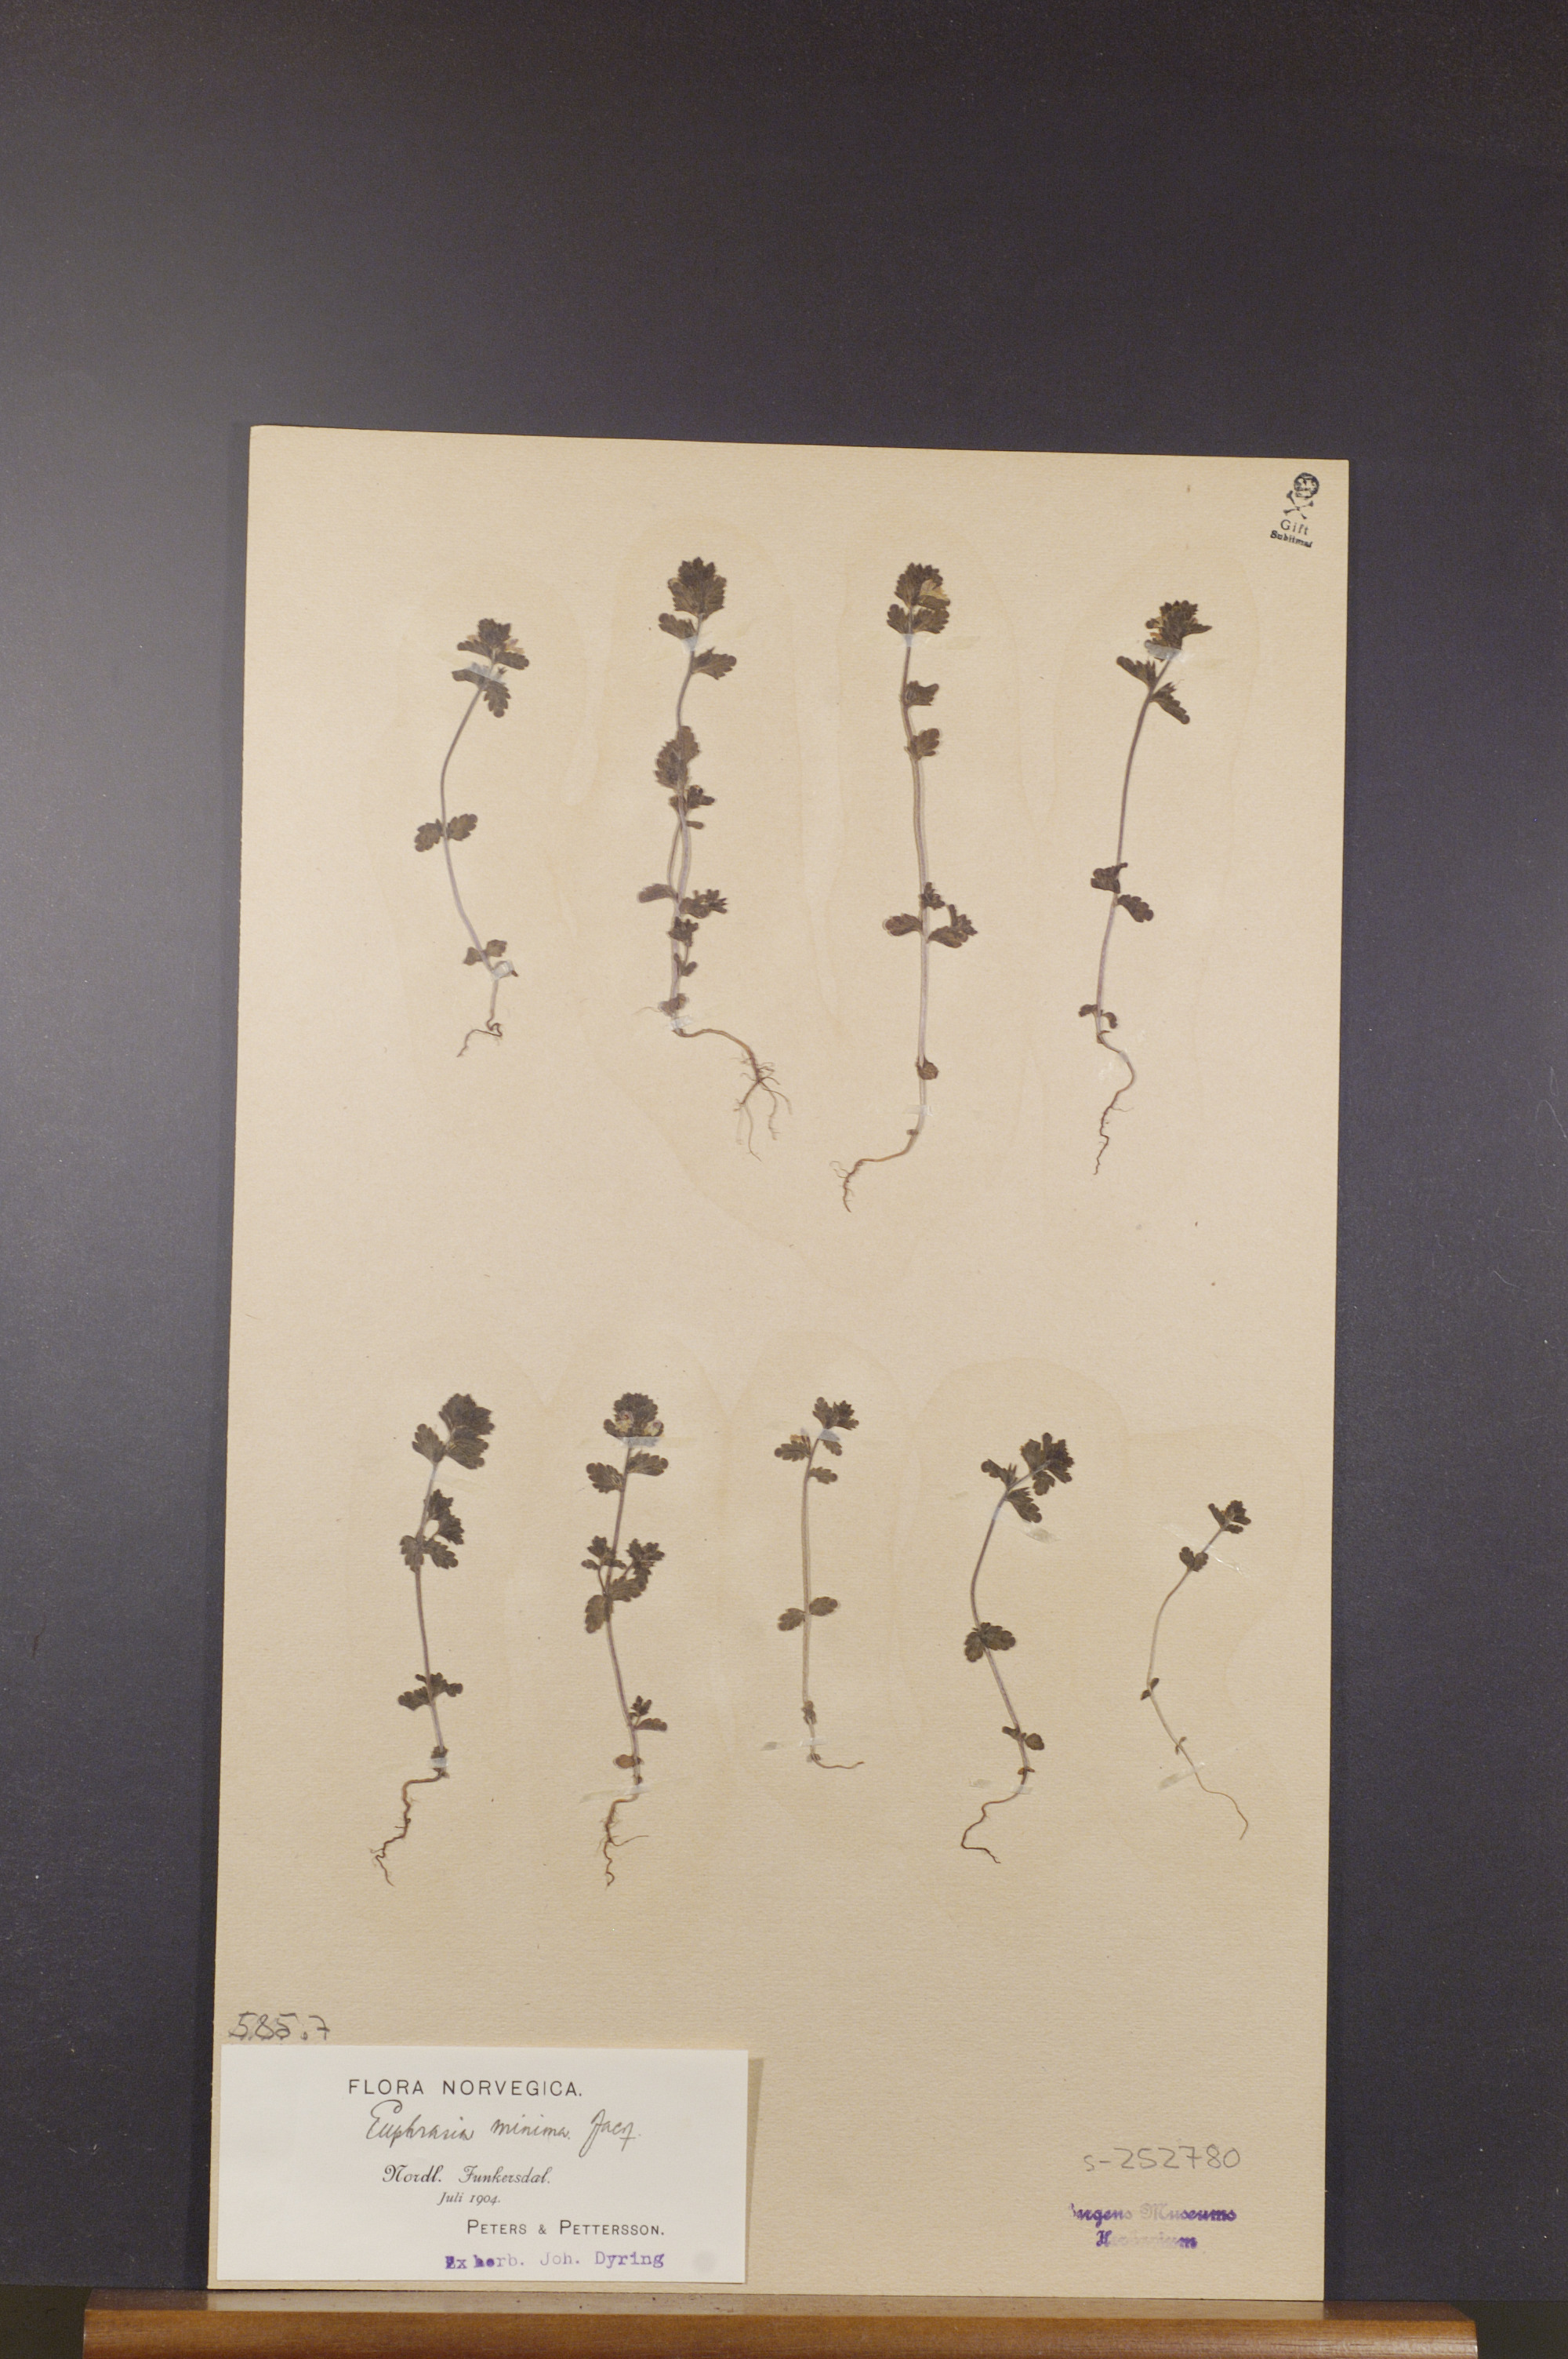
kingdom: Plantae
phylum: Tracheophyta
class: Magnoliopsida
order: Lamiales
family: Orobanchaceae
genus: Euphrasia
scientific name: Euphrasia minima
